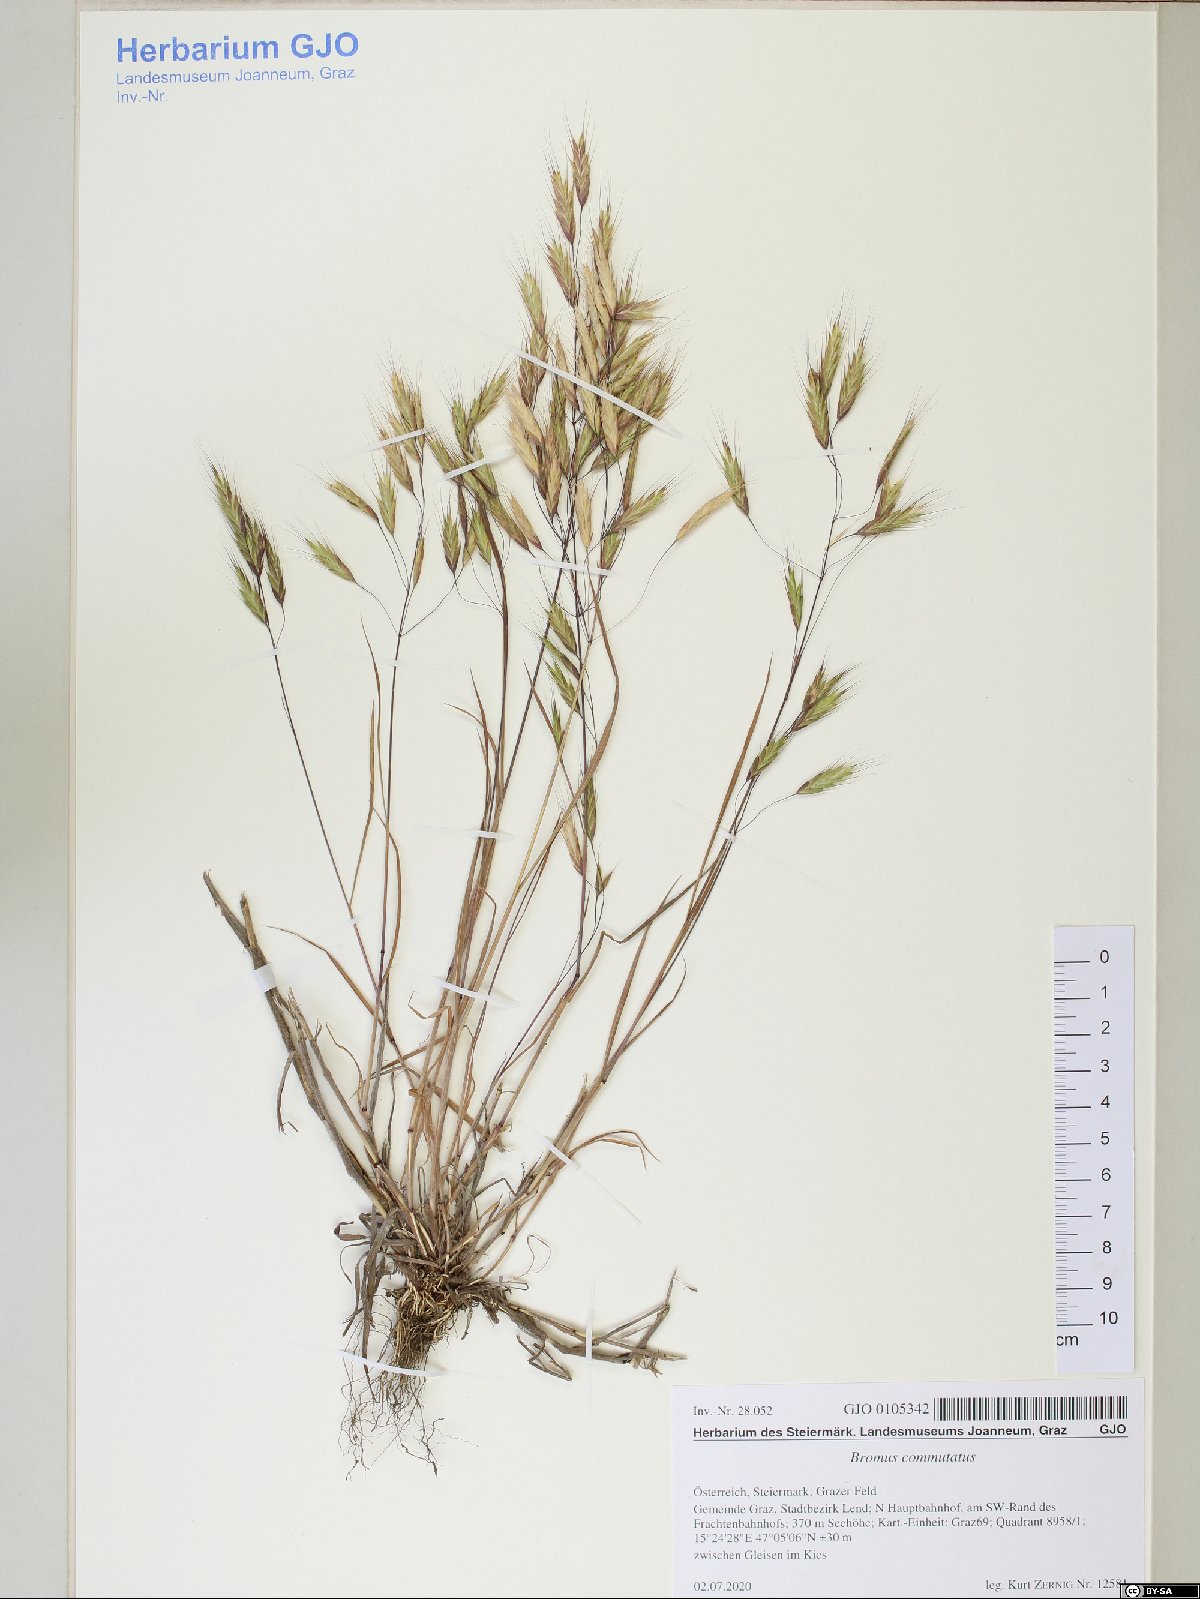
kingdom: Plantae
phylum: Tracheophyta
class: Liliopsida
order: Poales
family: Poaceae
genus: Bromus
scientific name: Bromus commutatus
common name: Meadow brome
